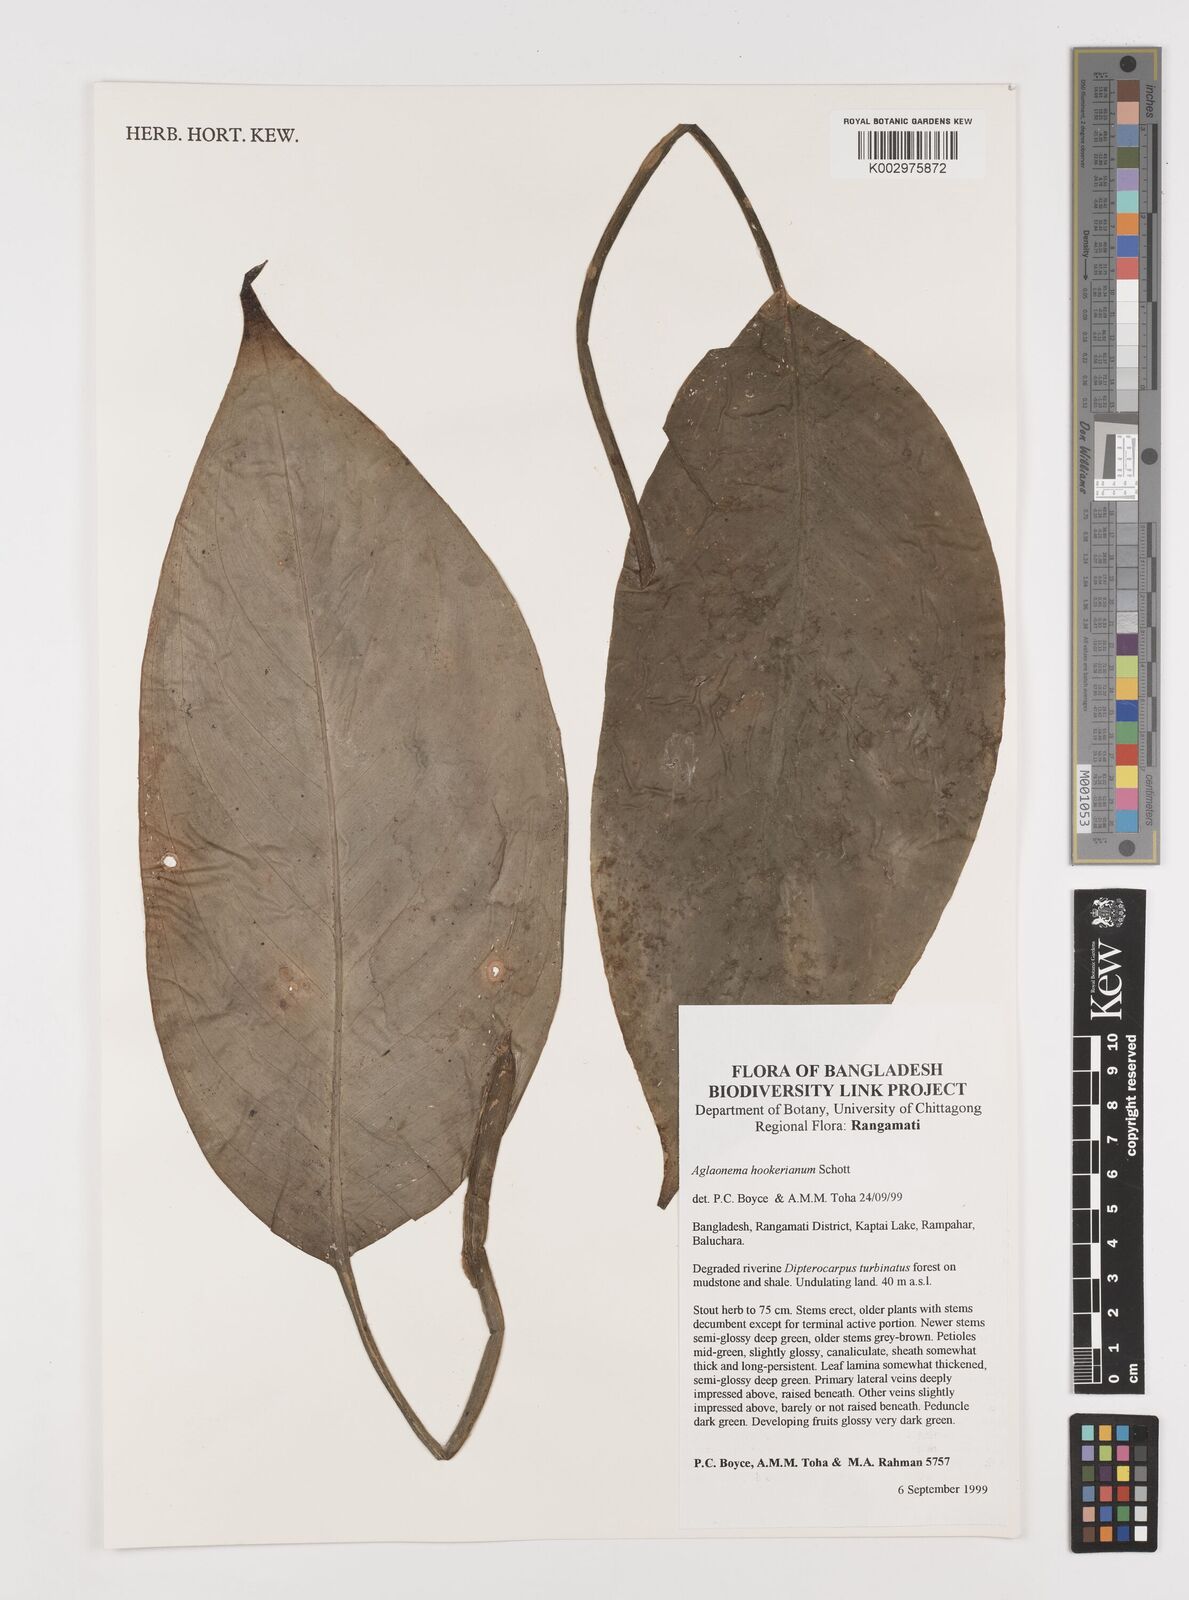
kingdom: Plantae
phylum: Tracheophyta
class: Liliopsida
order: Alismatales
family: Araceae
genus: Aglaonema
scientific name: Aglaonema hookerianum
